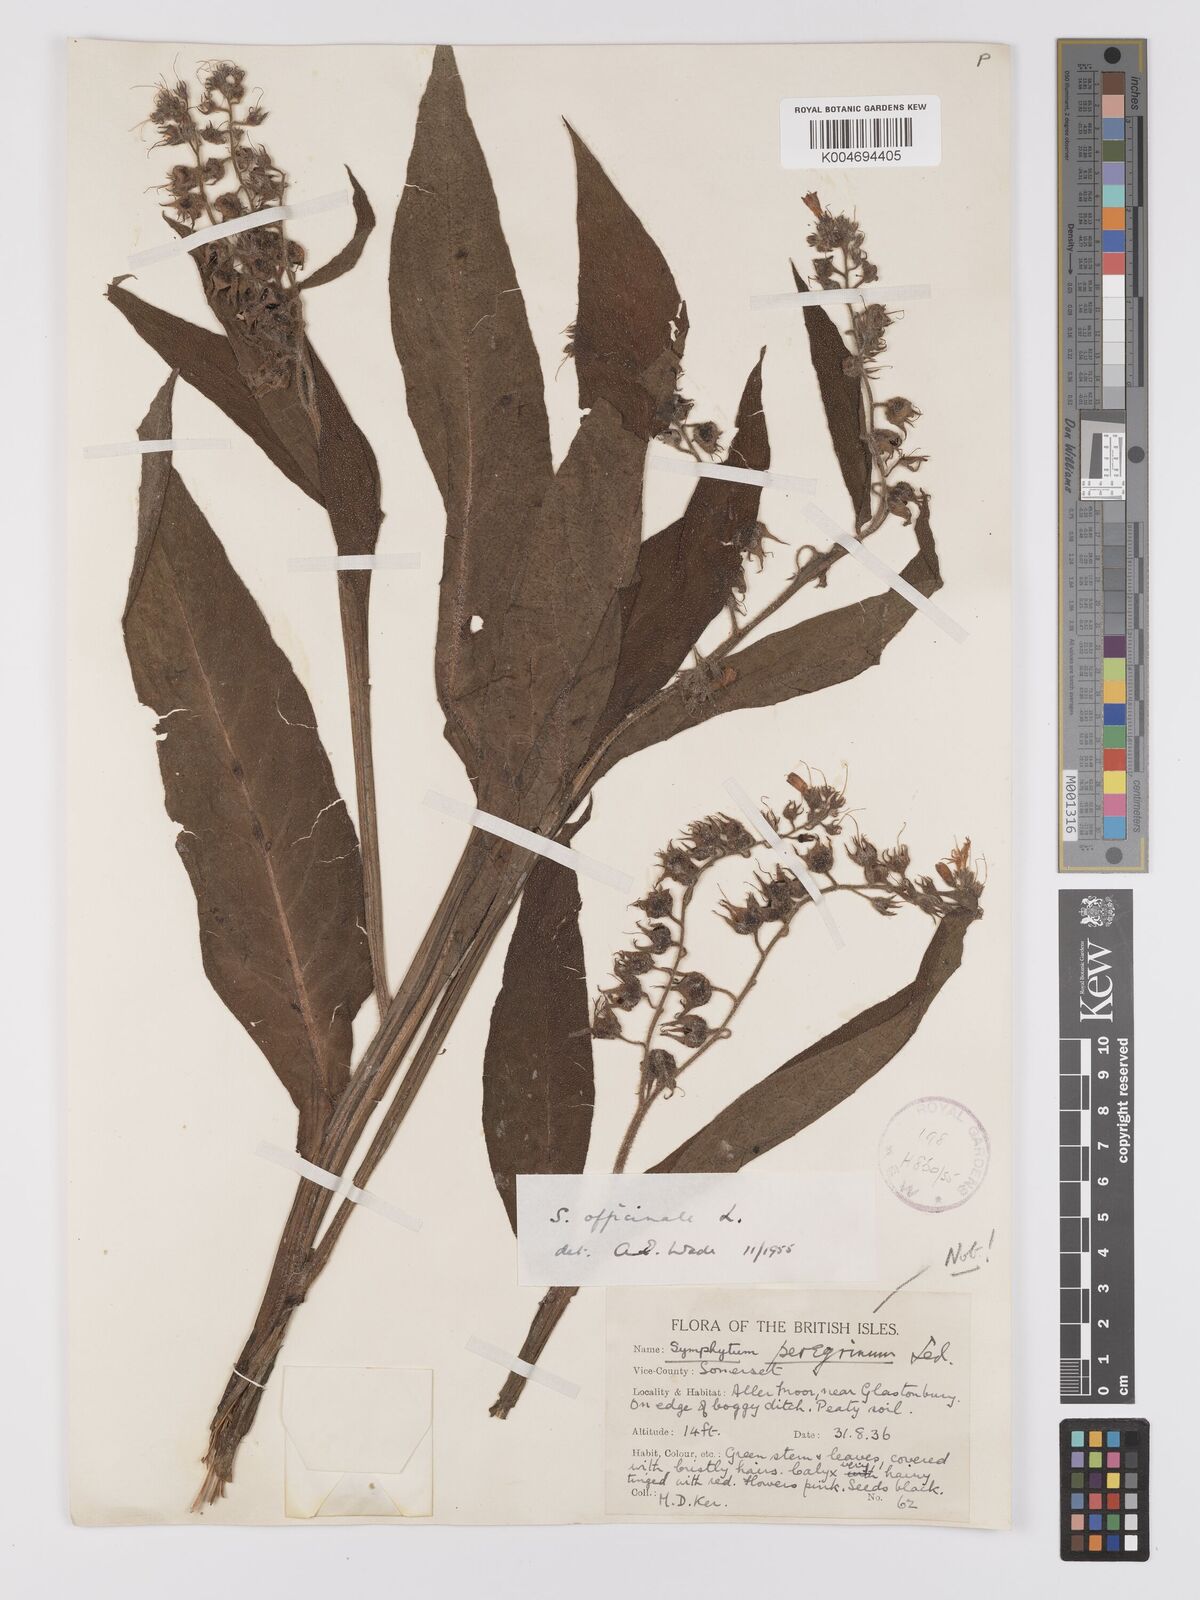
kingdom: Plantae
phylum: Tracheophyta
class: Magnoliopsida
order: Boraginales
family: Boraginaceae
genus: Symphytum
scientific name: Symphytum officinale
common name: Common comfrey
